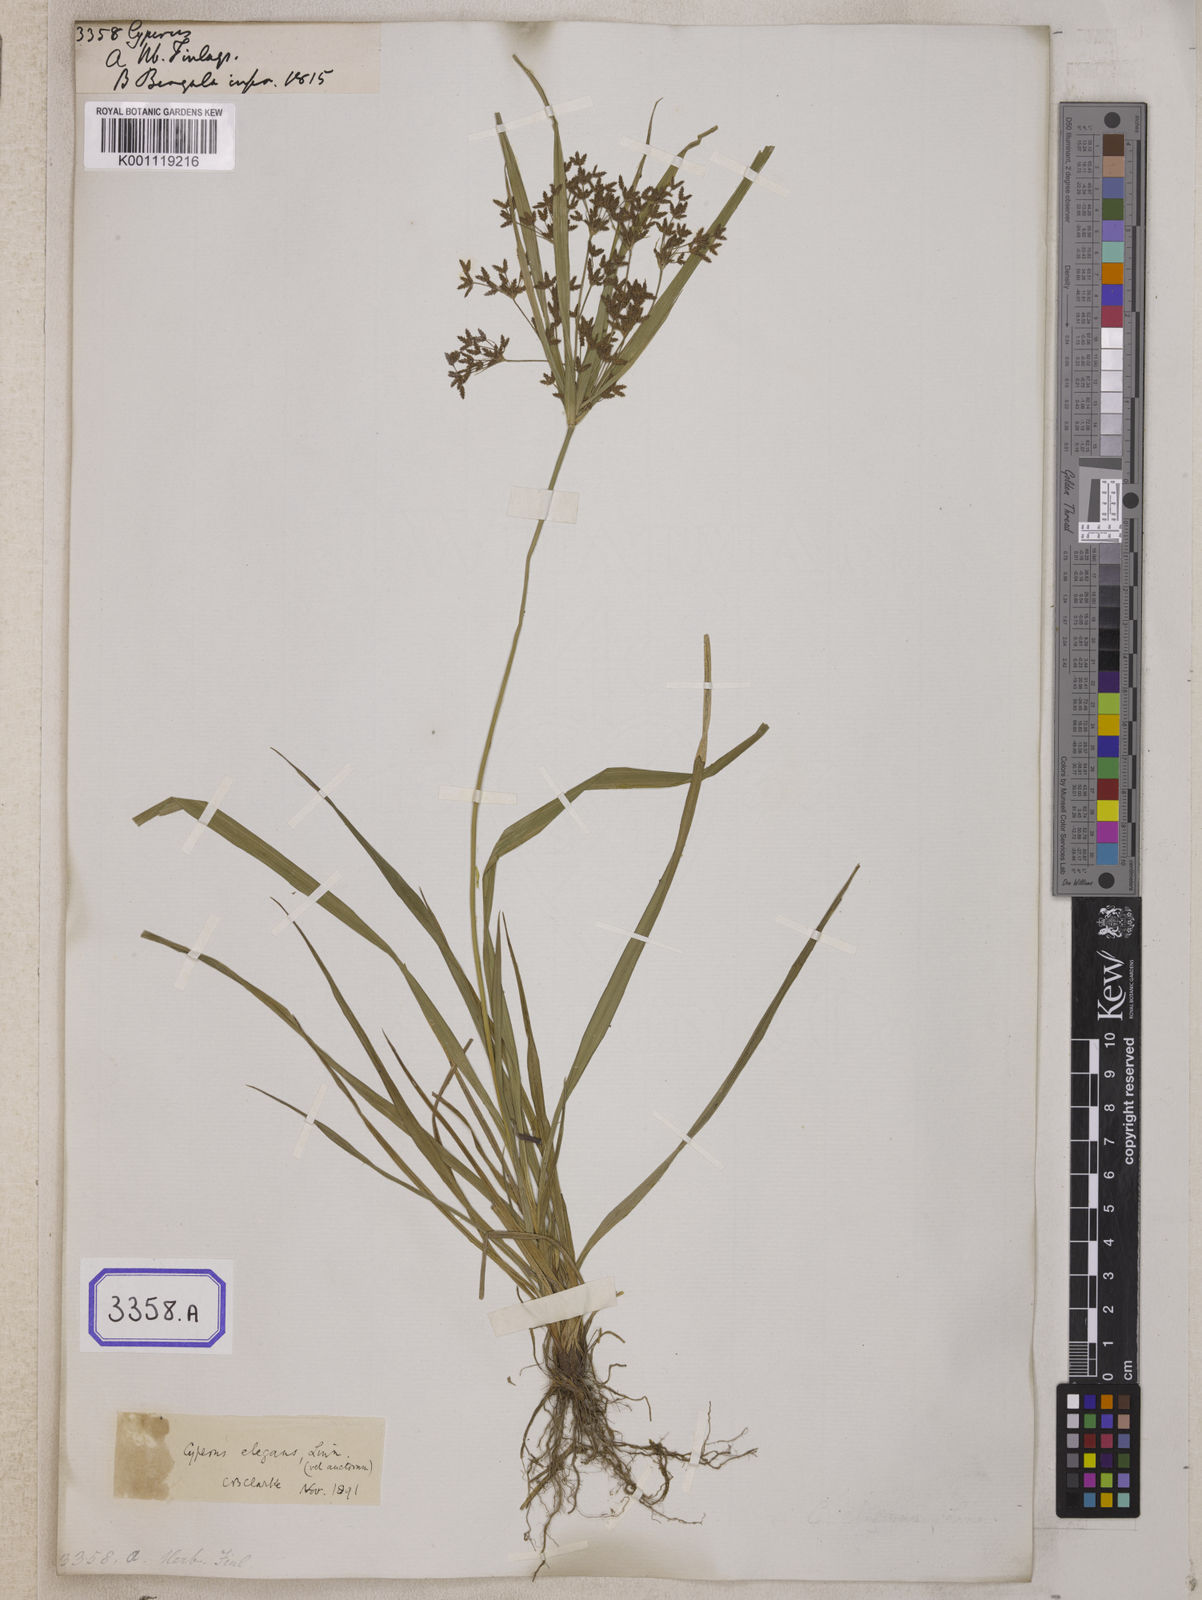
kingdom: Plantae
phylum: Tracheophyta
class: Liliopsida
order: Poales
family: Cyperaceae
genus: Cyperus
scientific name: Cyperus
